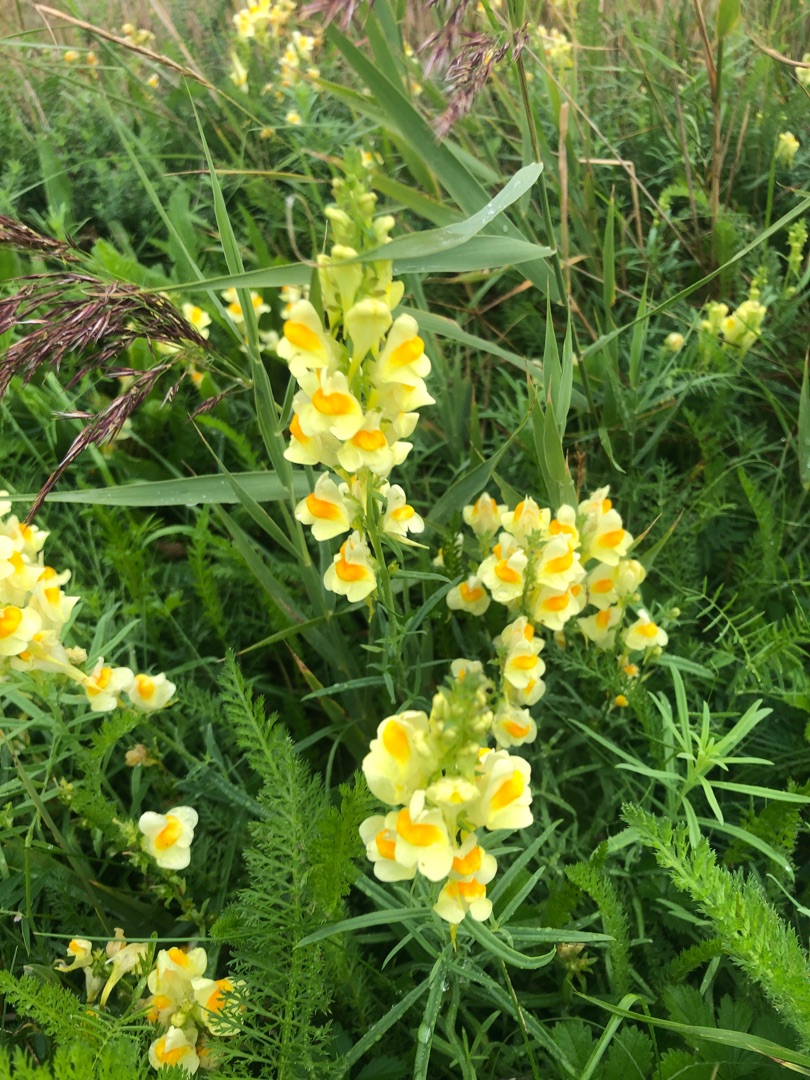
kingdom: Plantae
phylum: Tracheophyta
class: Magnoliopsida
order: Lamiales
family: Plantaginaceae
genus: Linaria
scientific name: Linaria vulgaris
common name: Almindelig torskemund
